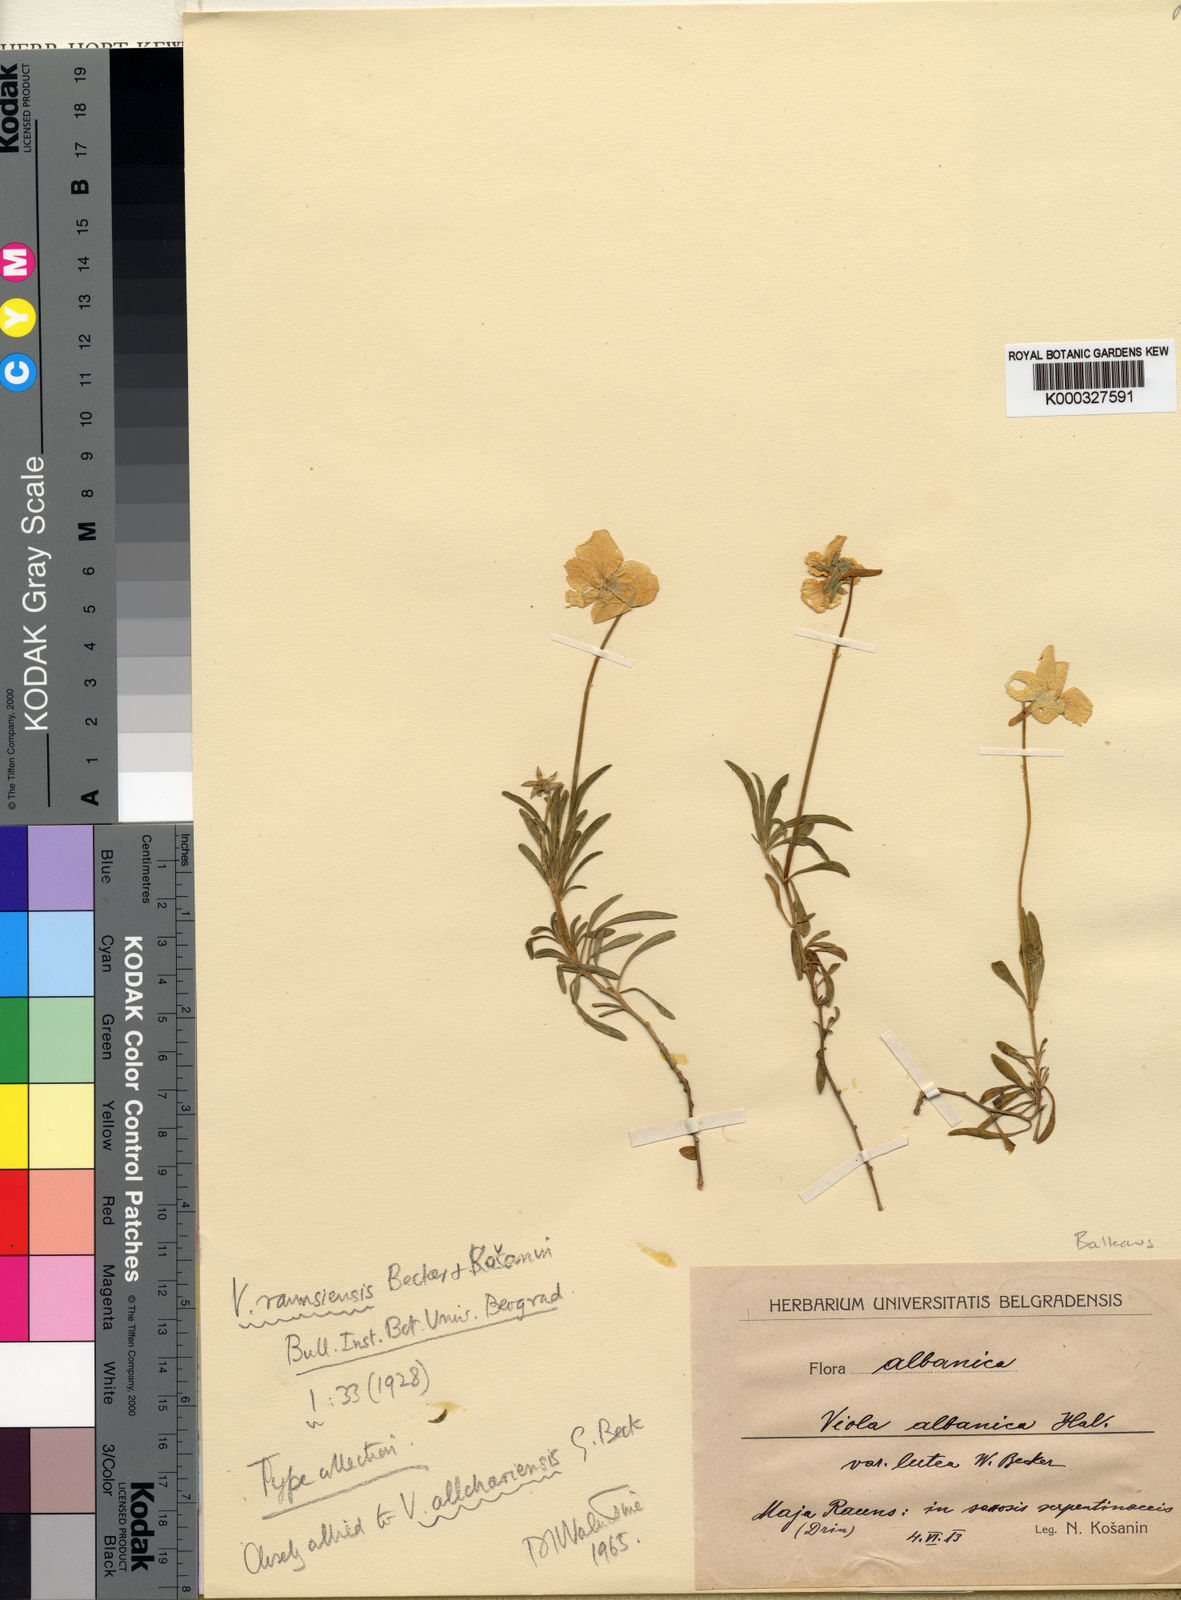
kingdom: Plantae
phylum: Tracheophyta
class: Magnoliopsida
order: Malpighiales
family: Violaceae
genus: Viola
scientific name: Viola
